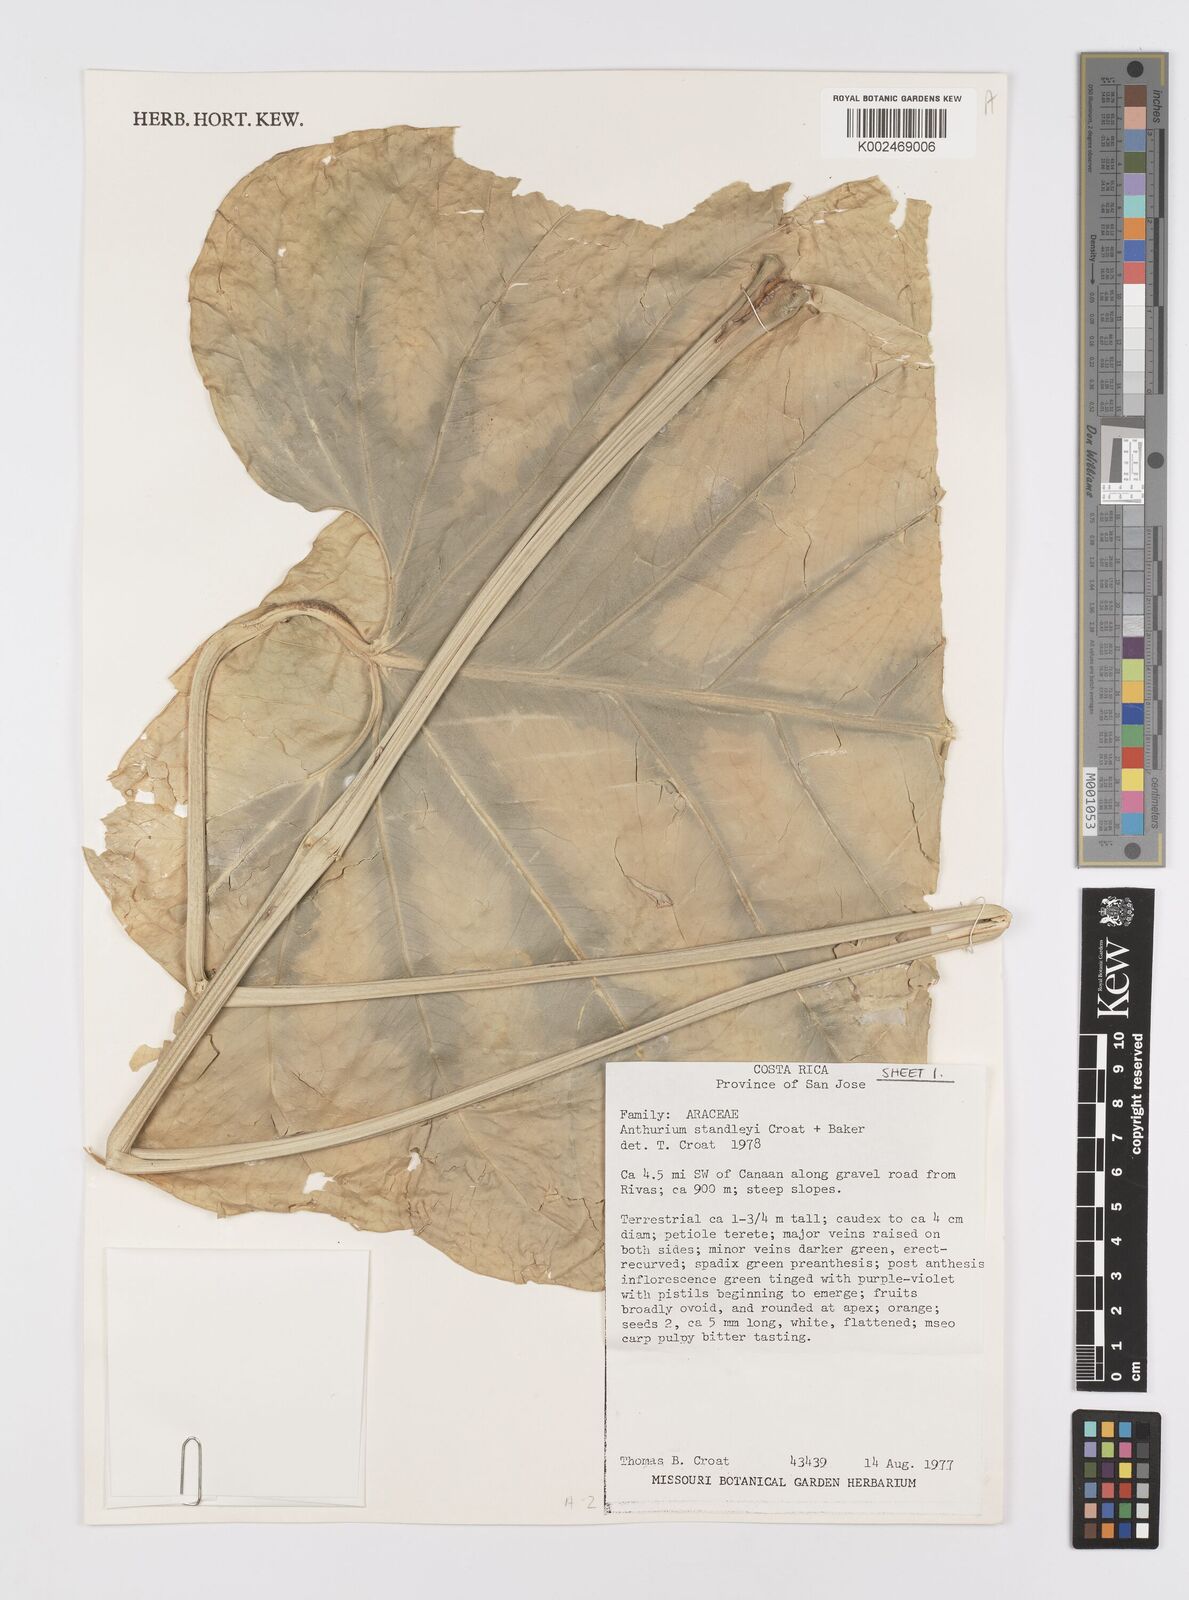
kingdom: Plantae
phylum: Tracheophyta
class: Liliopsida
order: Alismatales
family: Araceae
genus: Anthurium
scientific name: Anthurium standleyi
